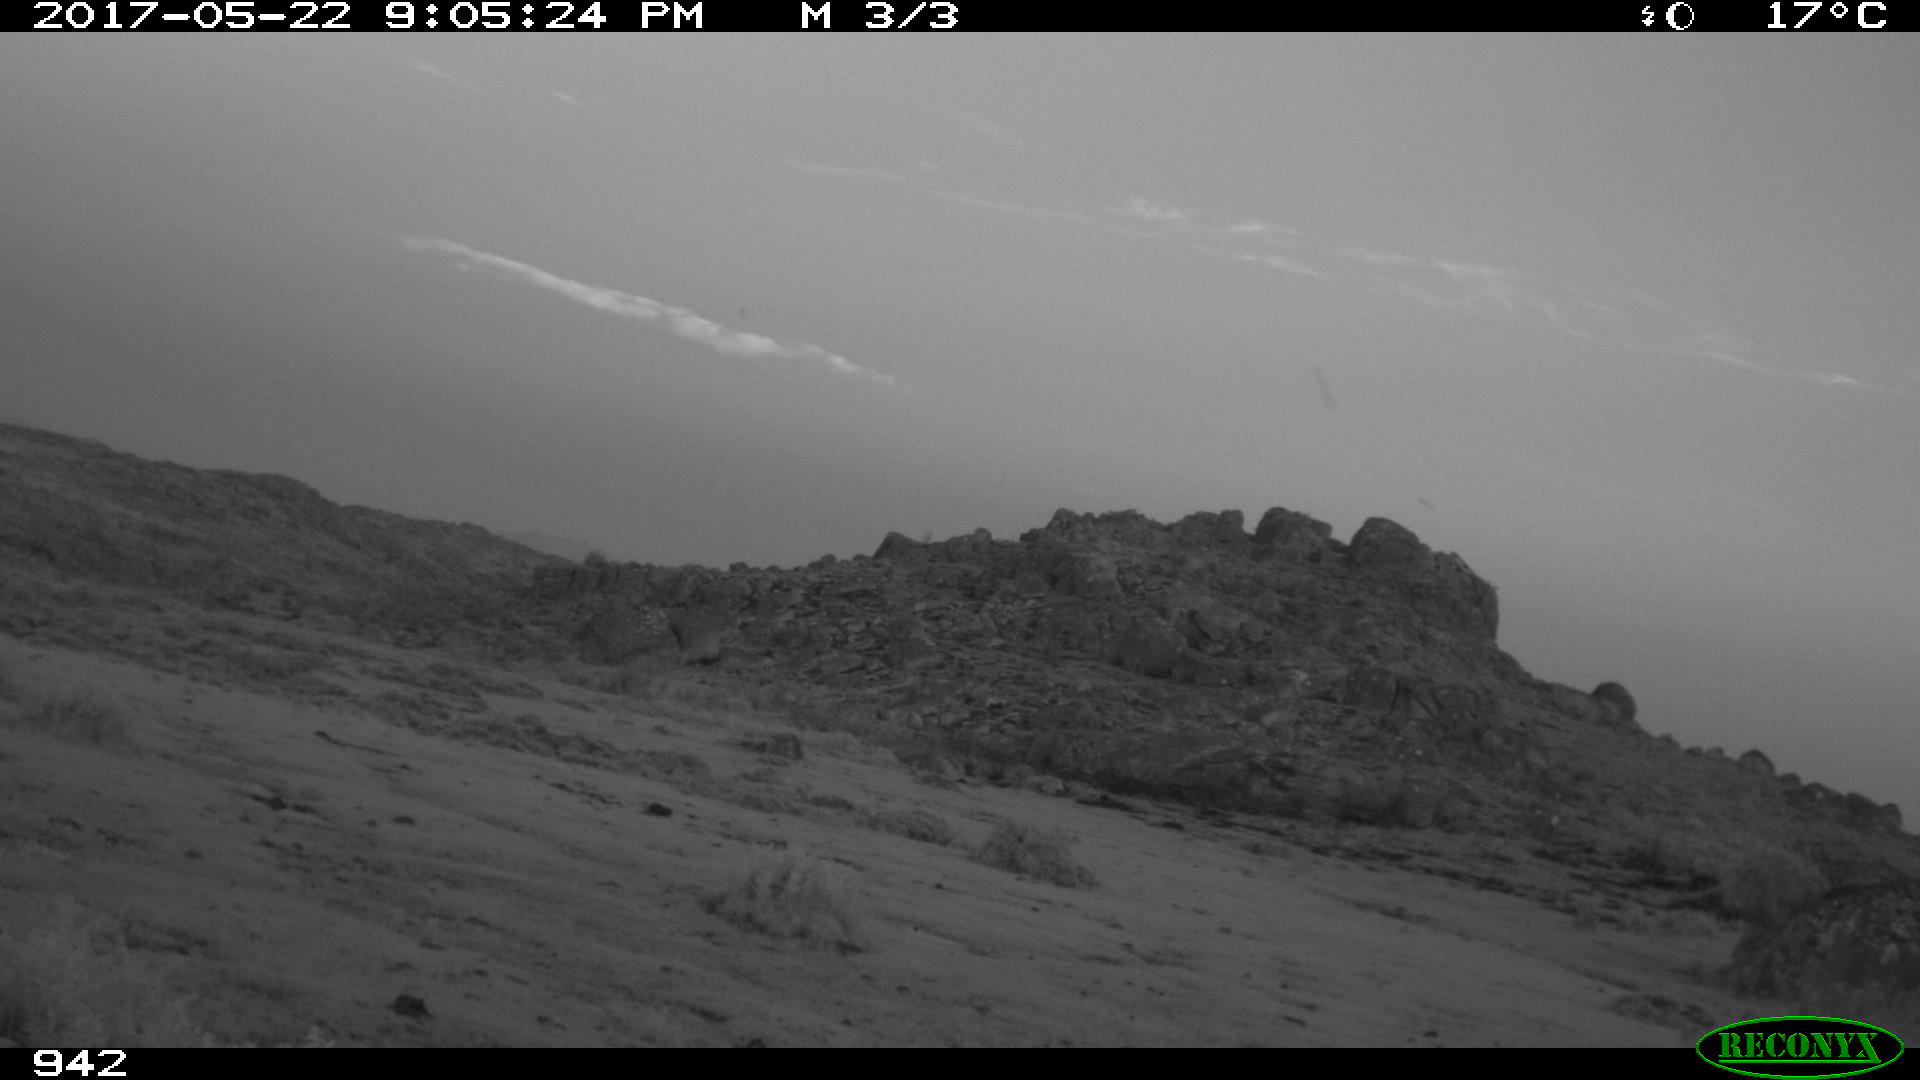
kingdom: Animalia
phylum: Chordata
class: Mammalia
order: Artiodactyla
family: Bovidae
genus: Bos
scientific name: Bos taurus
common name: Domesticated cattle
